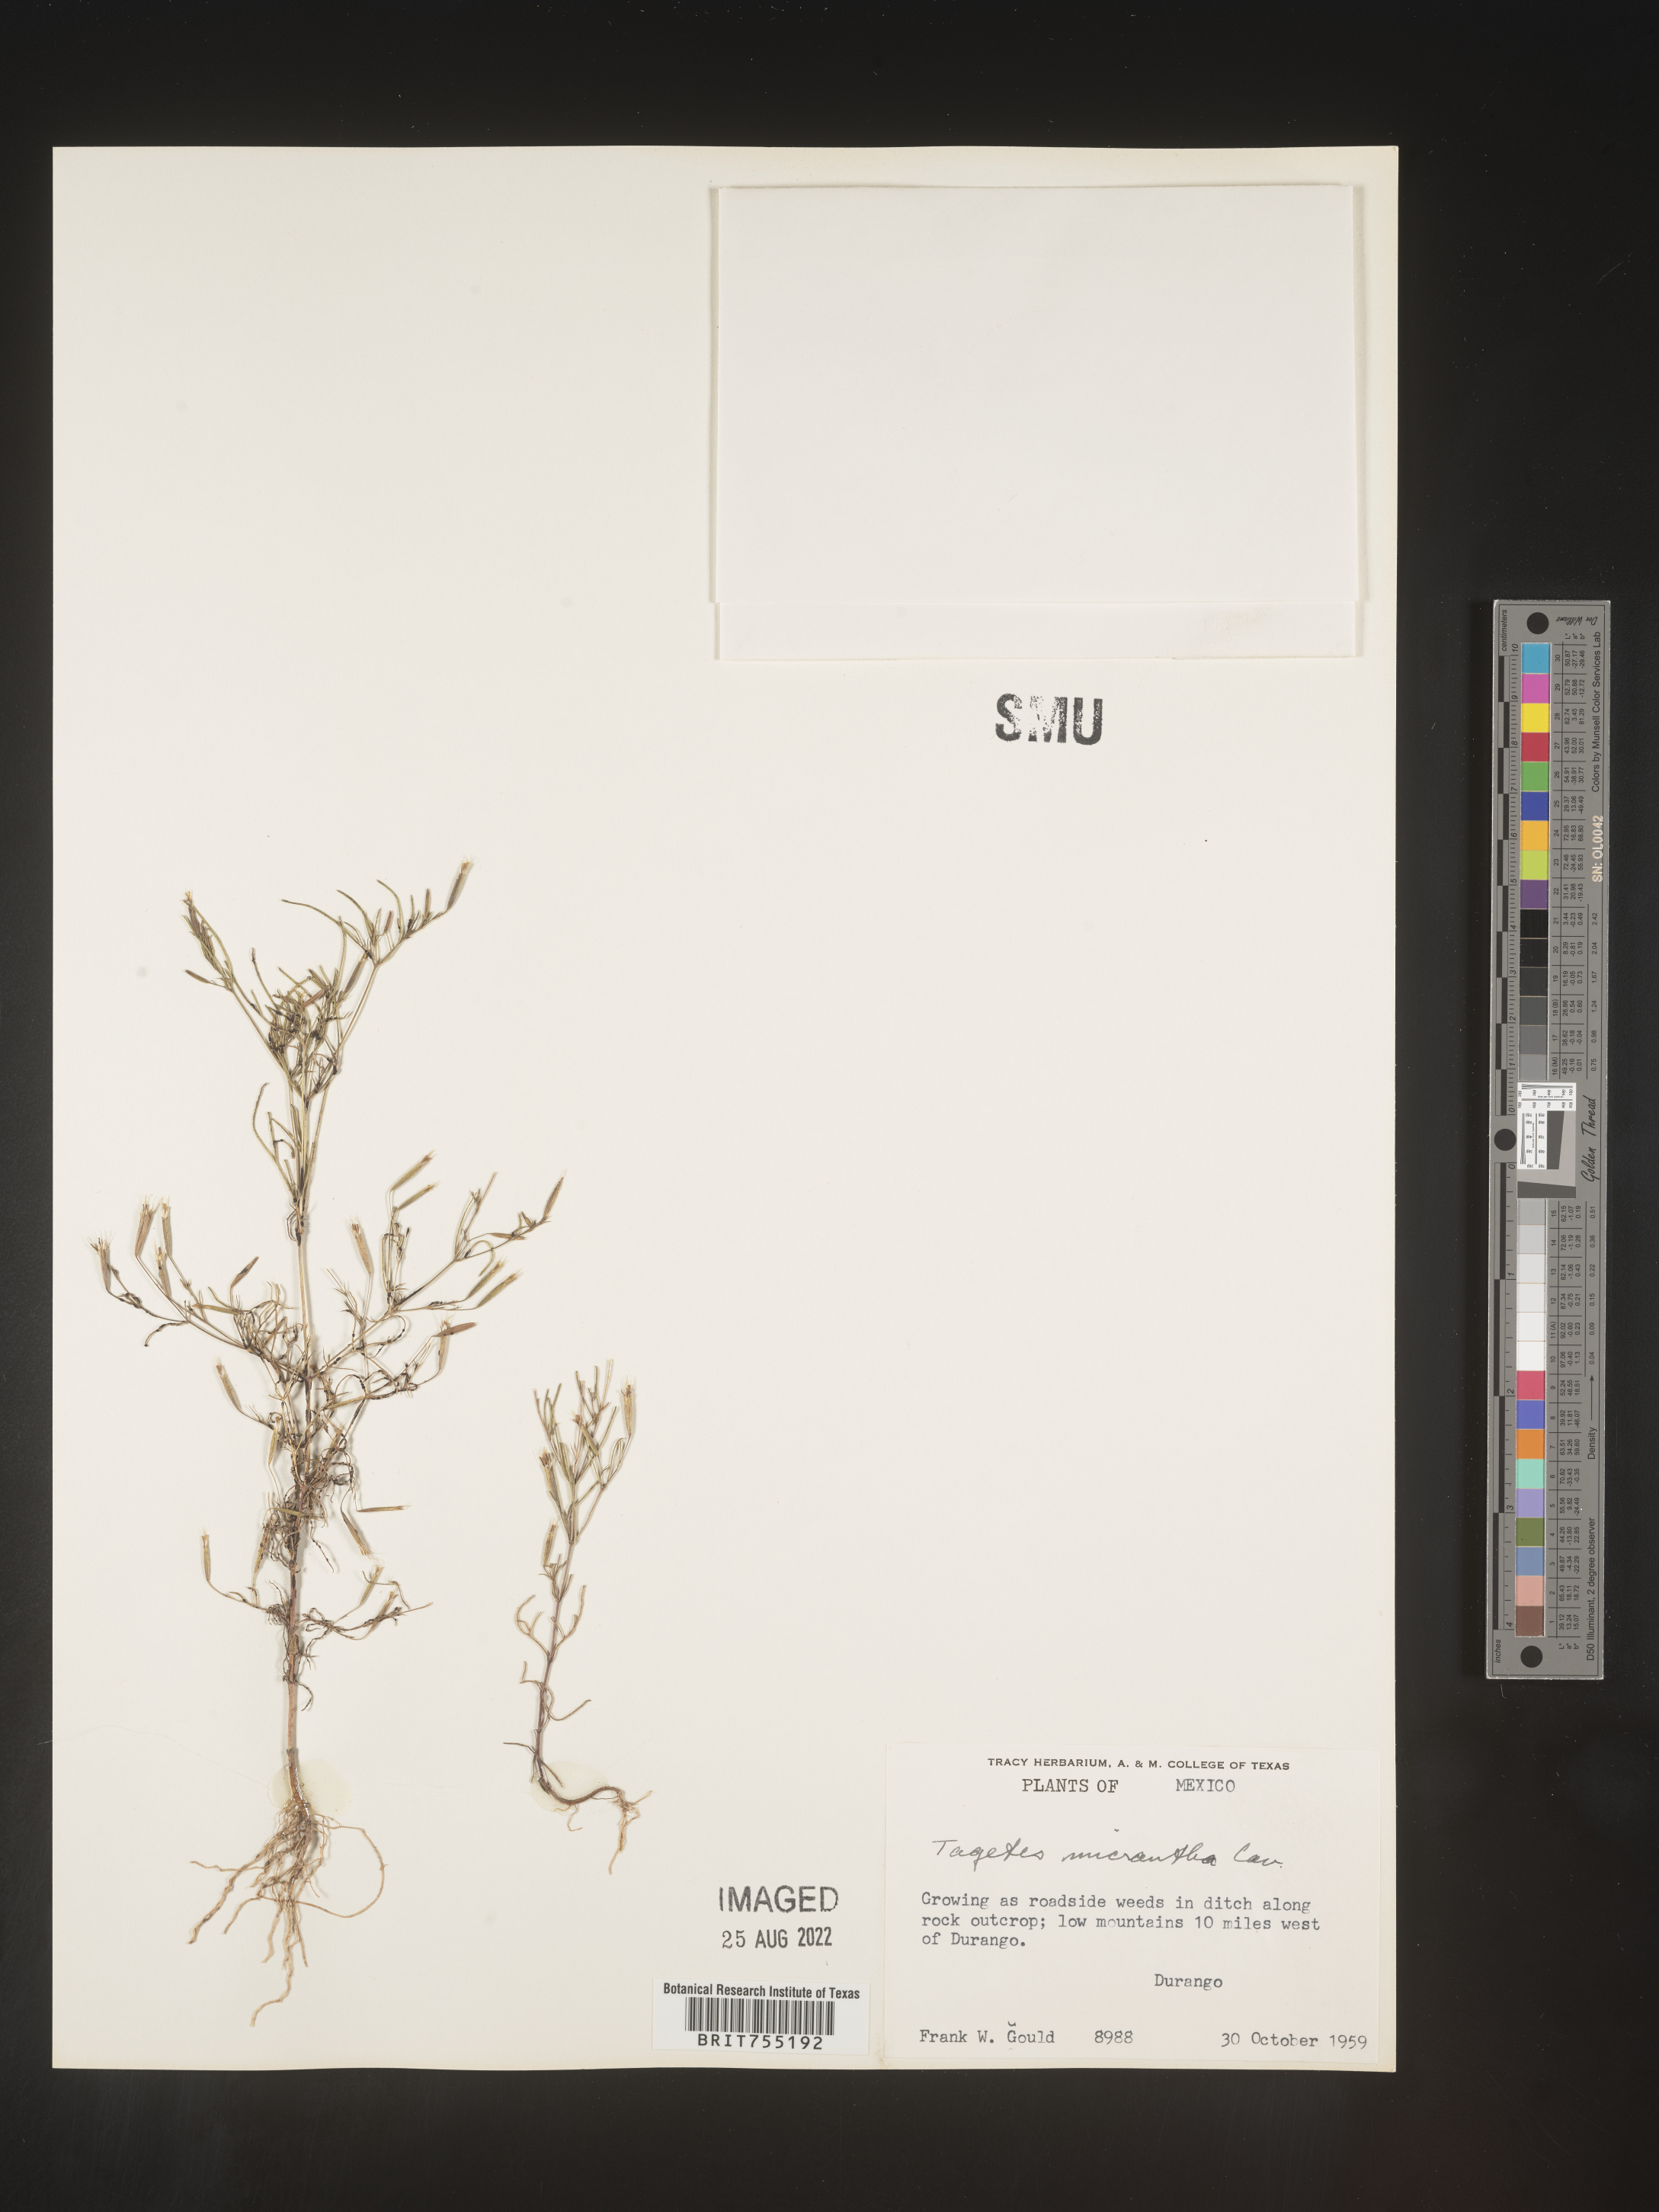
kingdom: Plantae
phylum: Tracheophyta
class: Magnoliopsida
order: Asterales
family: Asteraceae
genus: Tagetes
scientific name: Tagetes
